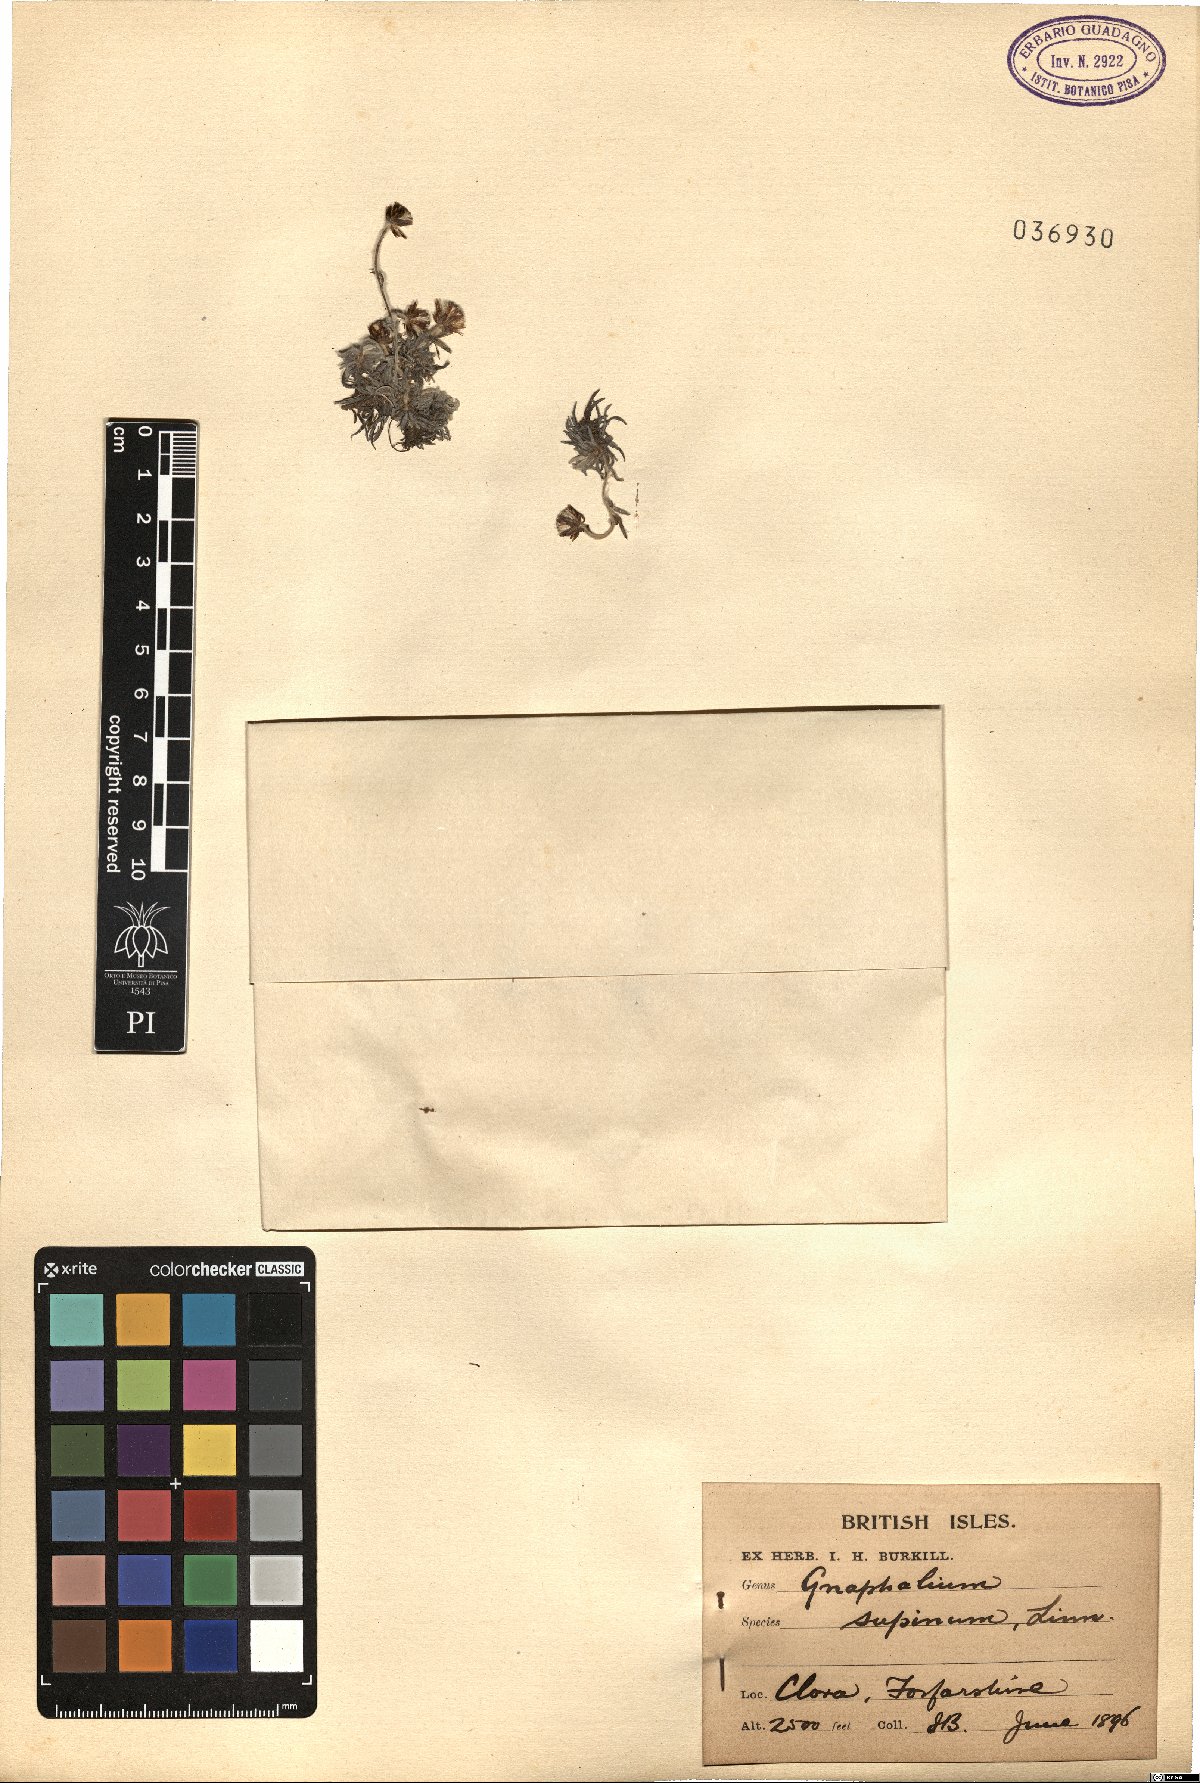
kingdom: Plantae
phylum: Tracheophyta
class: Magnoliopsida
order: Asterales
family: Asteraceae
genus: Omalotheca
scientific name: Omalotheca supina
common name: Alpine arctic-cudweed
